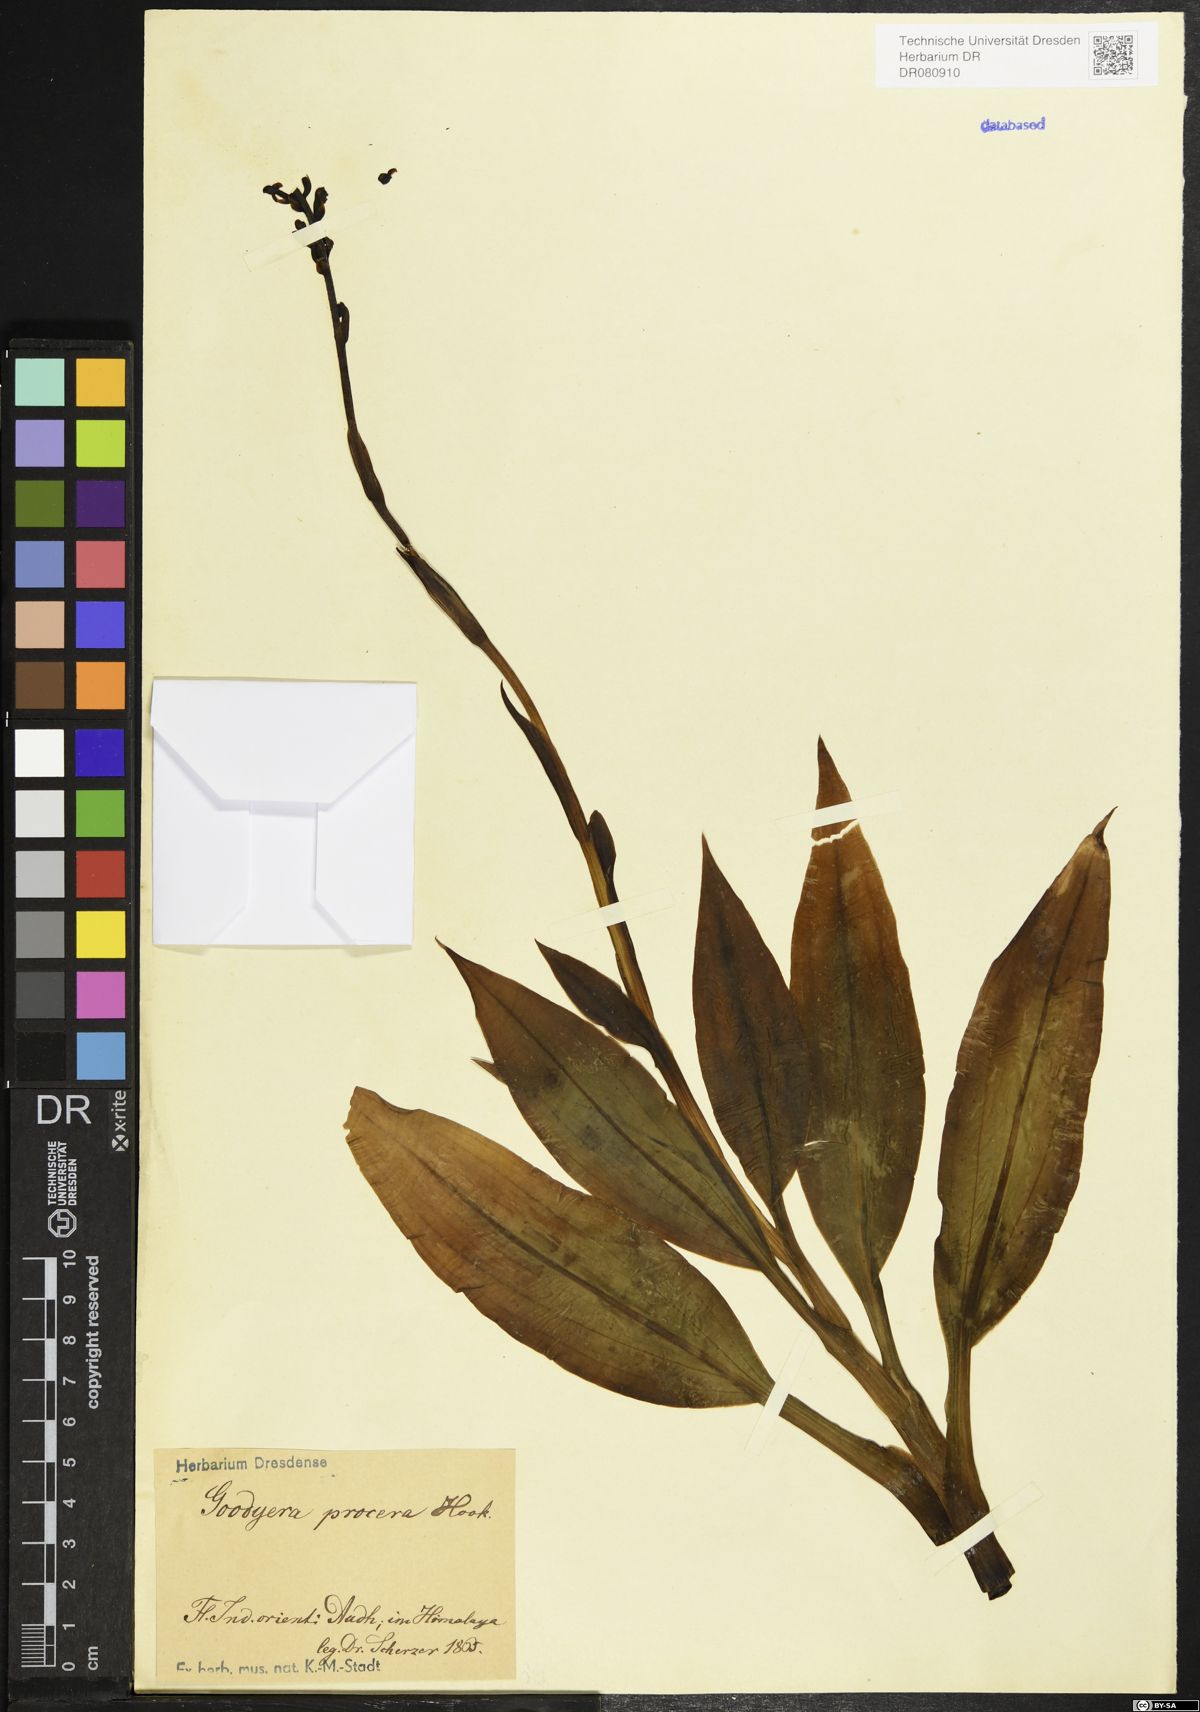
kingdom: Plantae
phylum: Tracheophyta
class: Liliopsida
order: Asparagales
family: Orchidaceae
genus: Goodyera
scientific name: Goodyera procera
